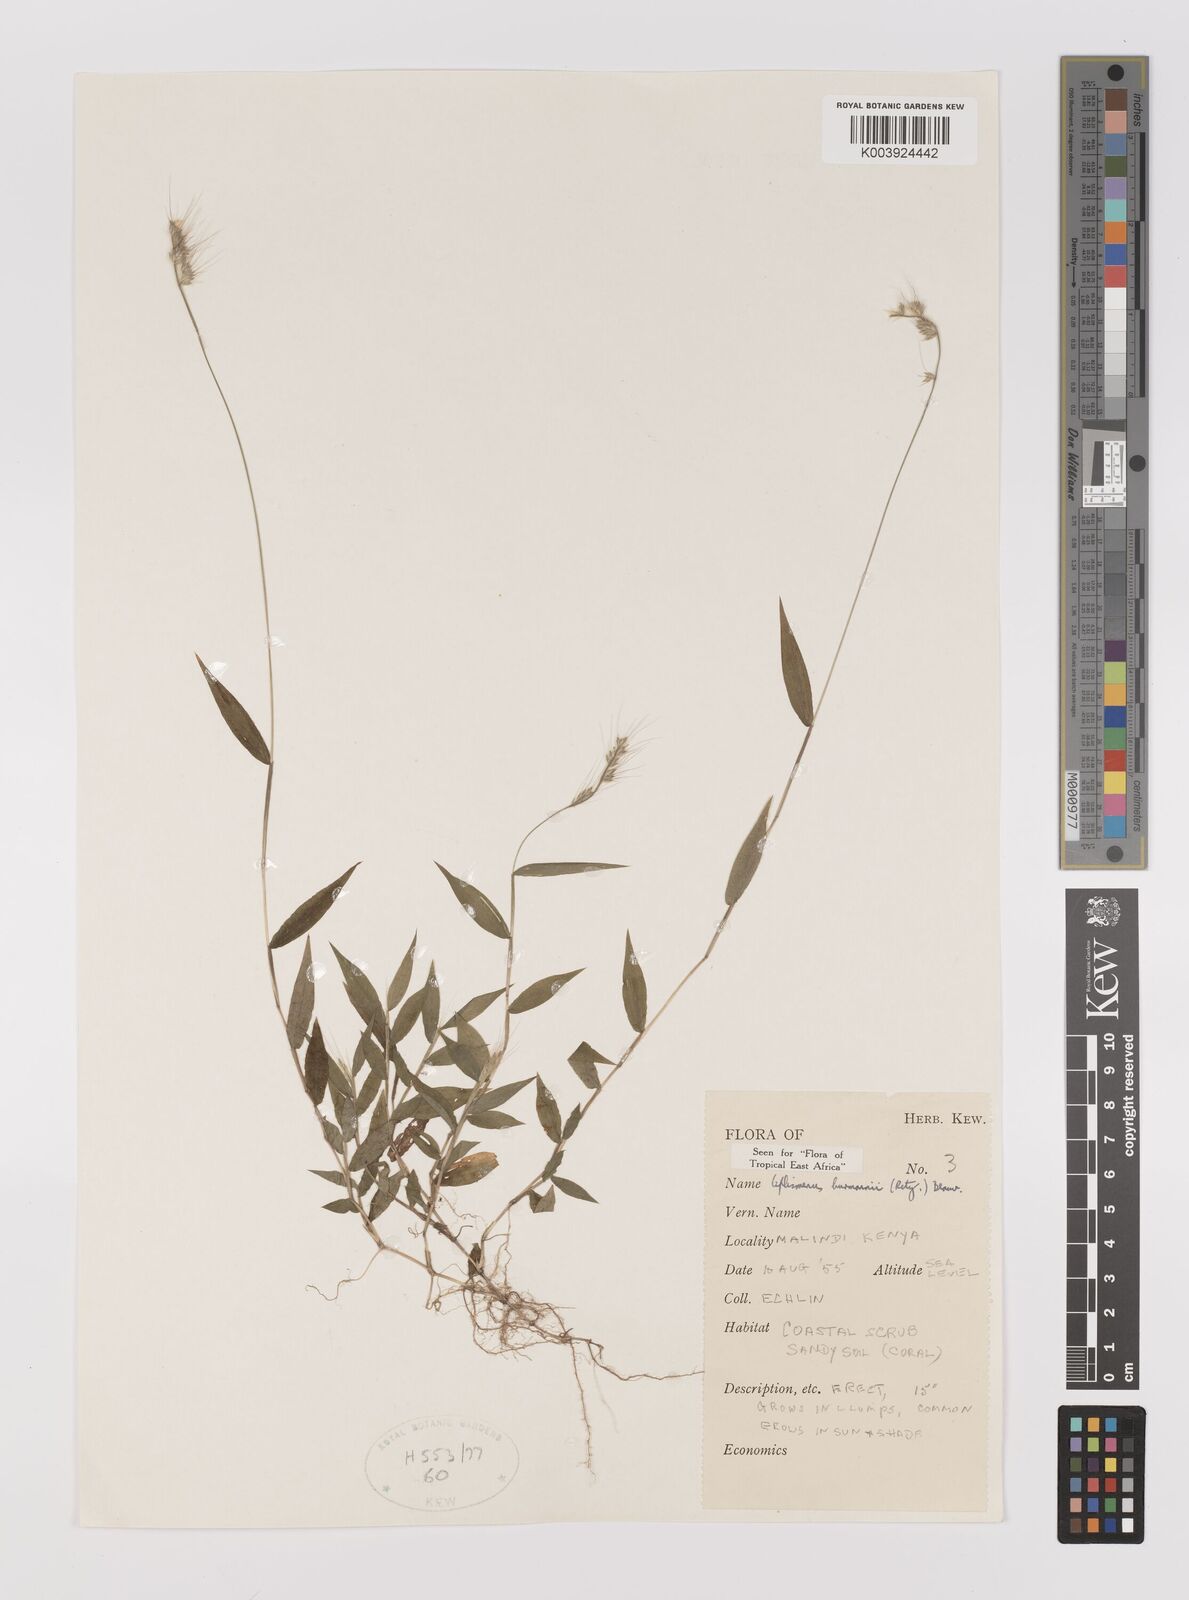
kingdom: Plantae
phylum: Tracheophyta
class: Liliopsida
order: Poales
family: Poaceae
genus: Oplismenus
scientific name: Oplismenus burmanni
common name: Burmann's basketgrass
